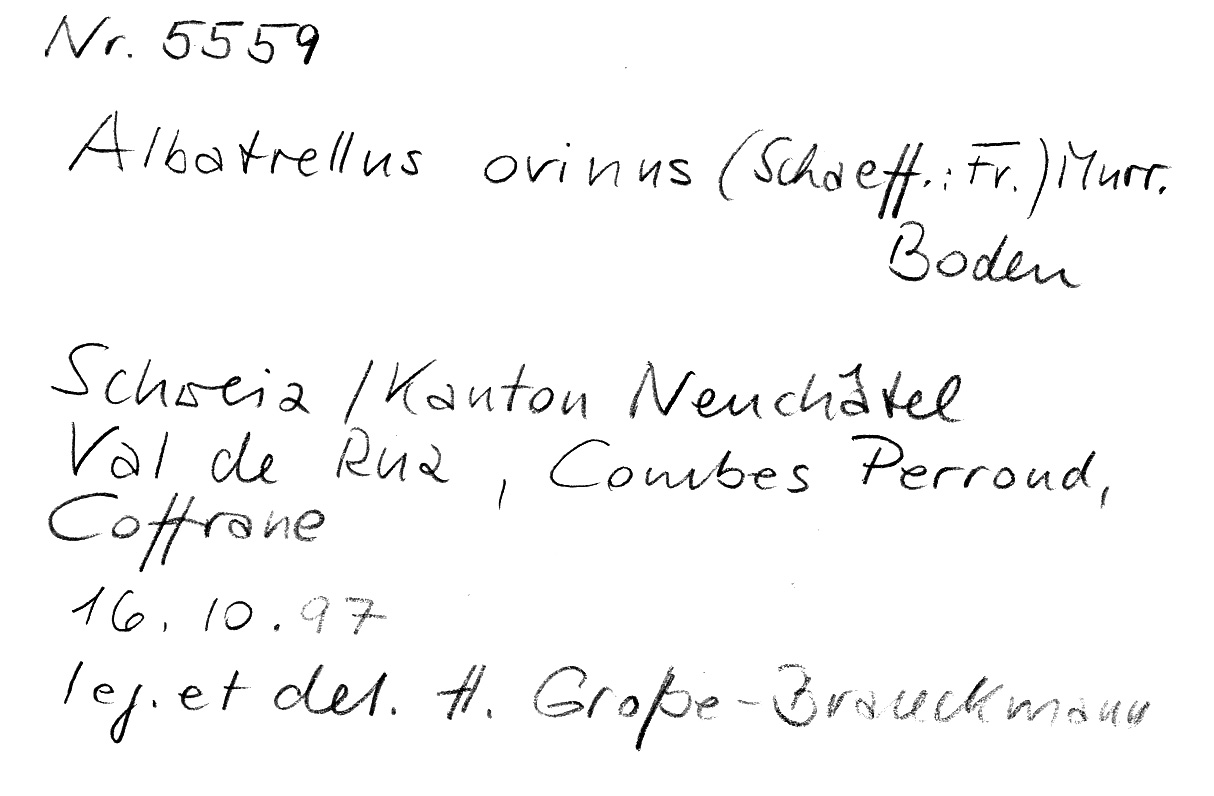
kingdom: Fungi
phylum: Basidiomycota
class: Agaricomycetes
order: Russulales
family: Albatrellaceae
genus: Albatrellus
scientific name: Albatrellus ovinus
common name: Forest lamb
